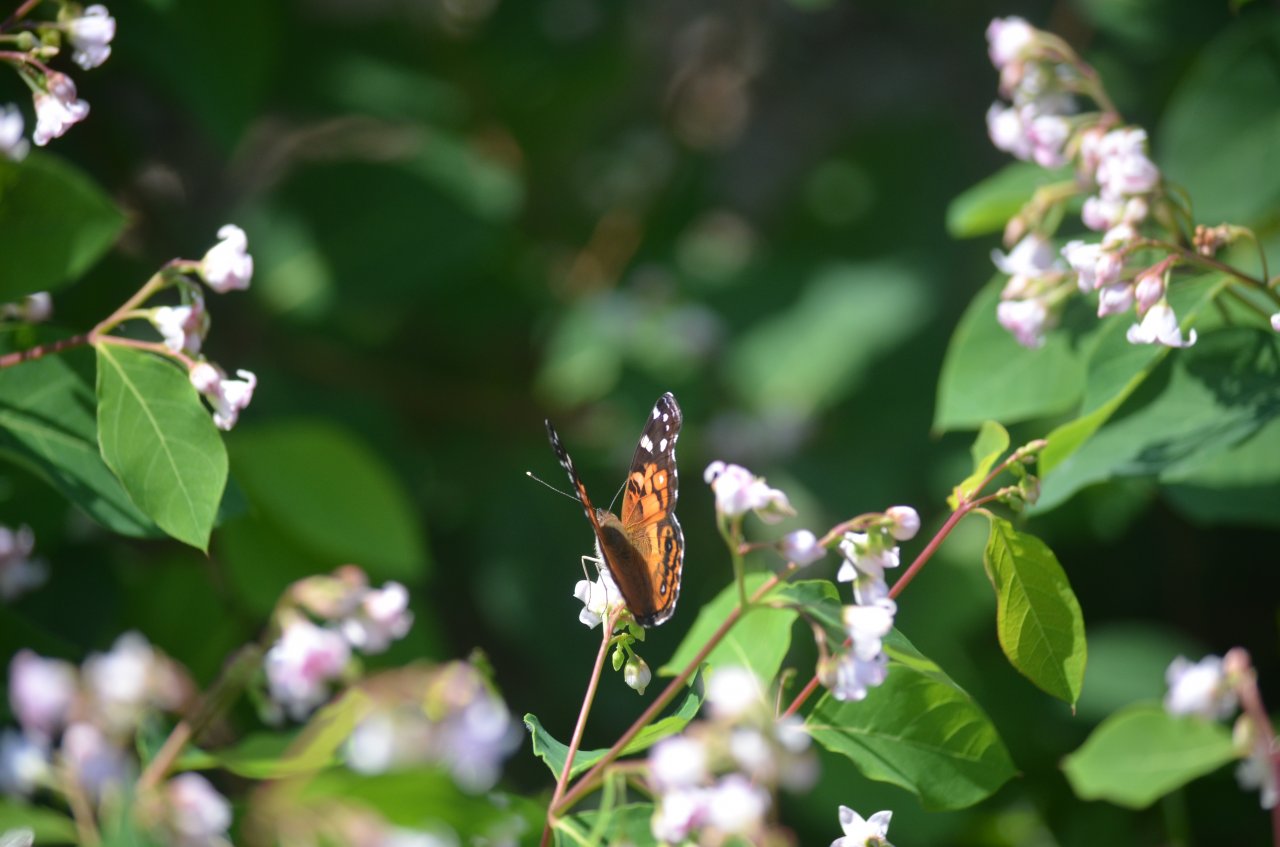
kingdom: Animalia
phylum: Arthropoda
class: Insecta
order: Lepidoptera
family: Nymphalidae
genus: Vanessa
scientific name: Vanessa virginiensis
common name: American Lady
